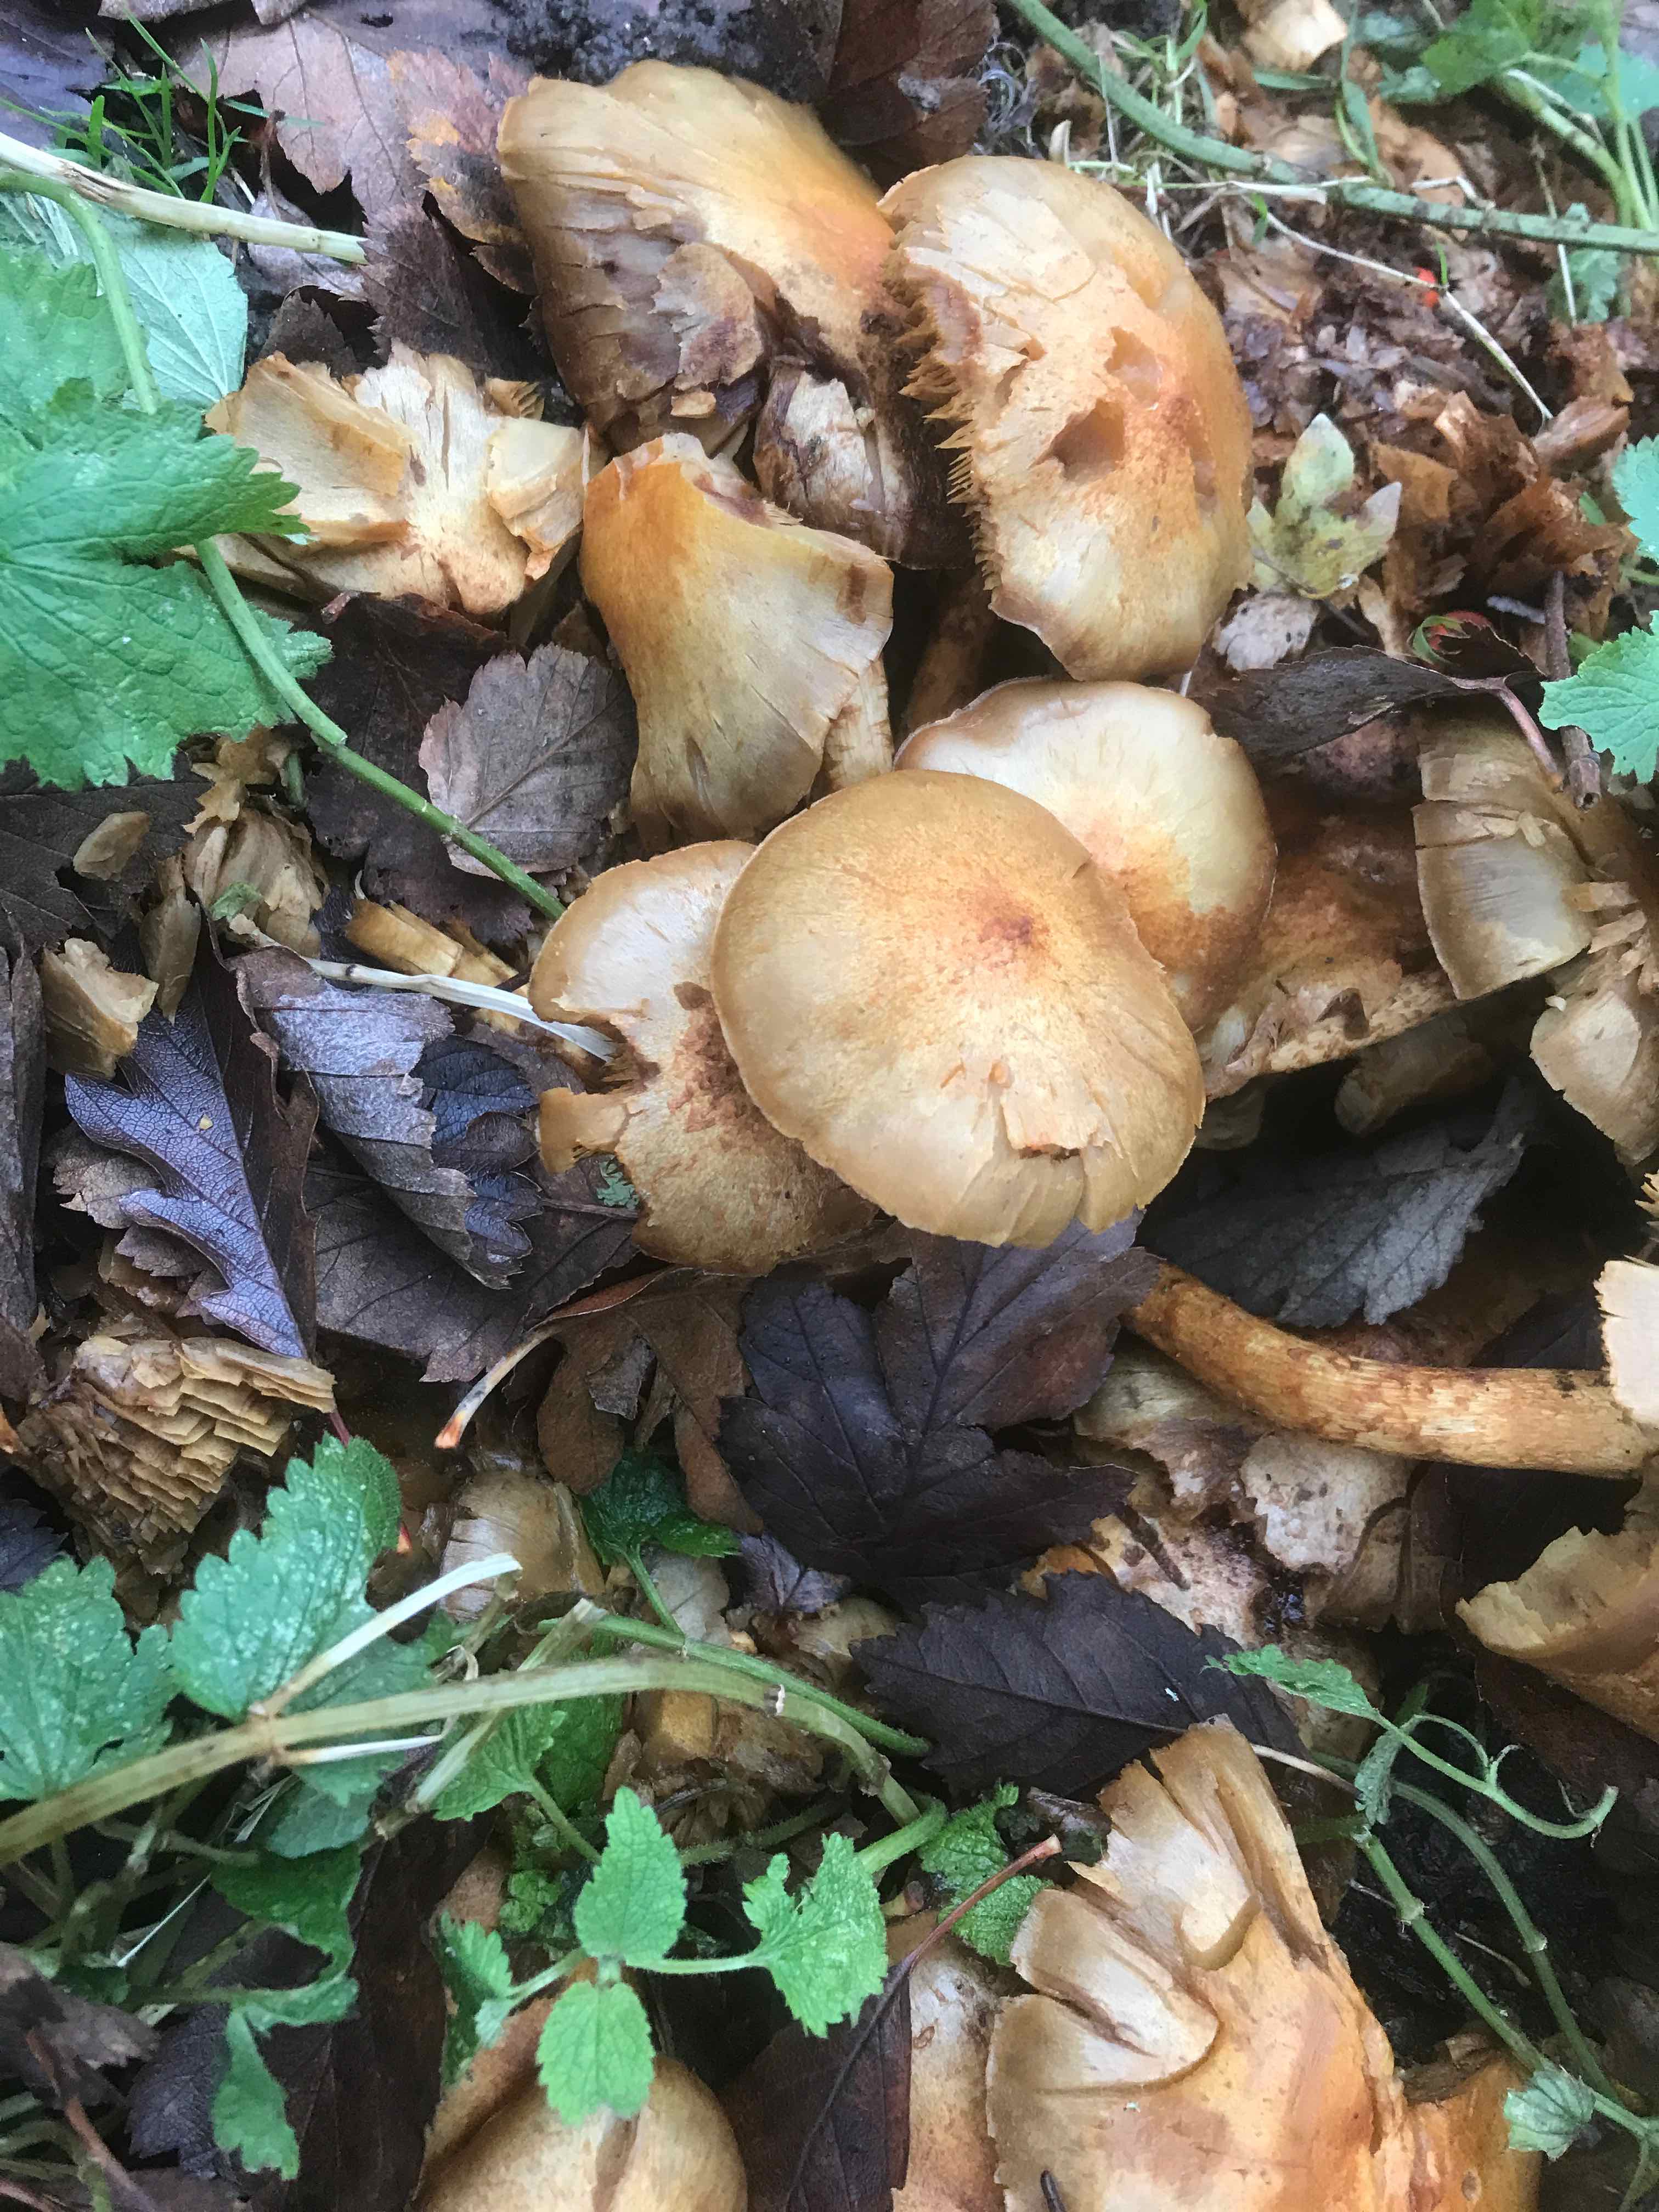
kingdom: Fungi
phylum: Basidiomycota
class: Agaricomycetes
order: Agaricales
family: Strophariaceae
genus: Pholiota
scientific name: Pholiota squarrosa
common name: krumskællet skælhat
